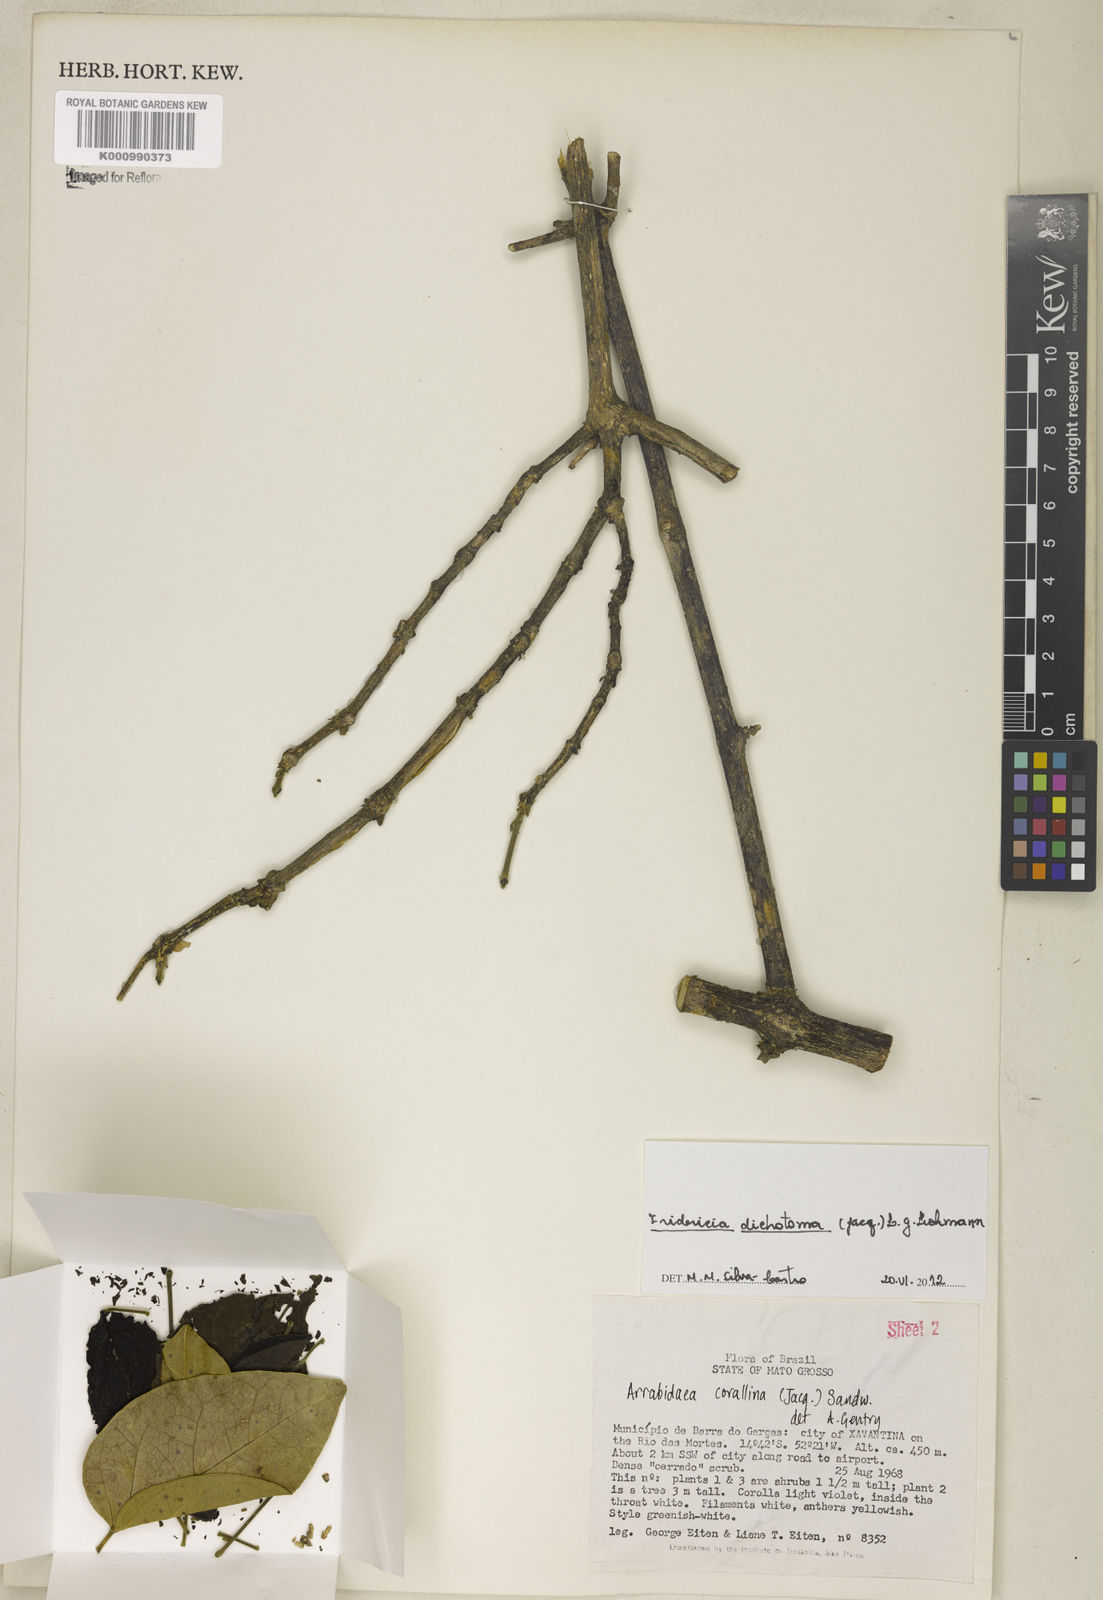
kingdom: Plantae
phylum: Tracheophyta
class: Magnoliopsida
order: Lamiales
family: Bignoniaceae
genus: Tanaecium
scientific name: Tanaecium dichotomum
